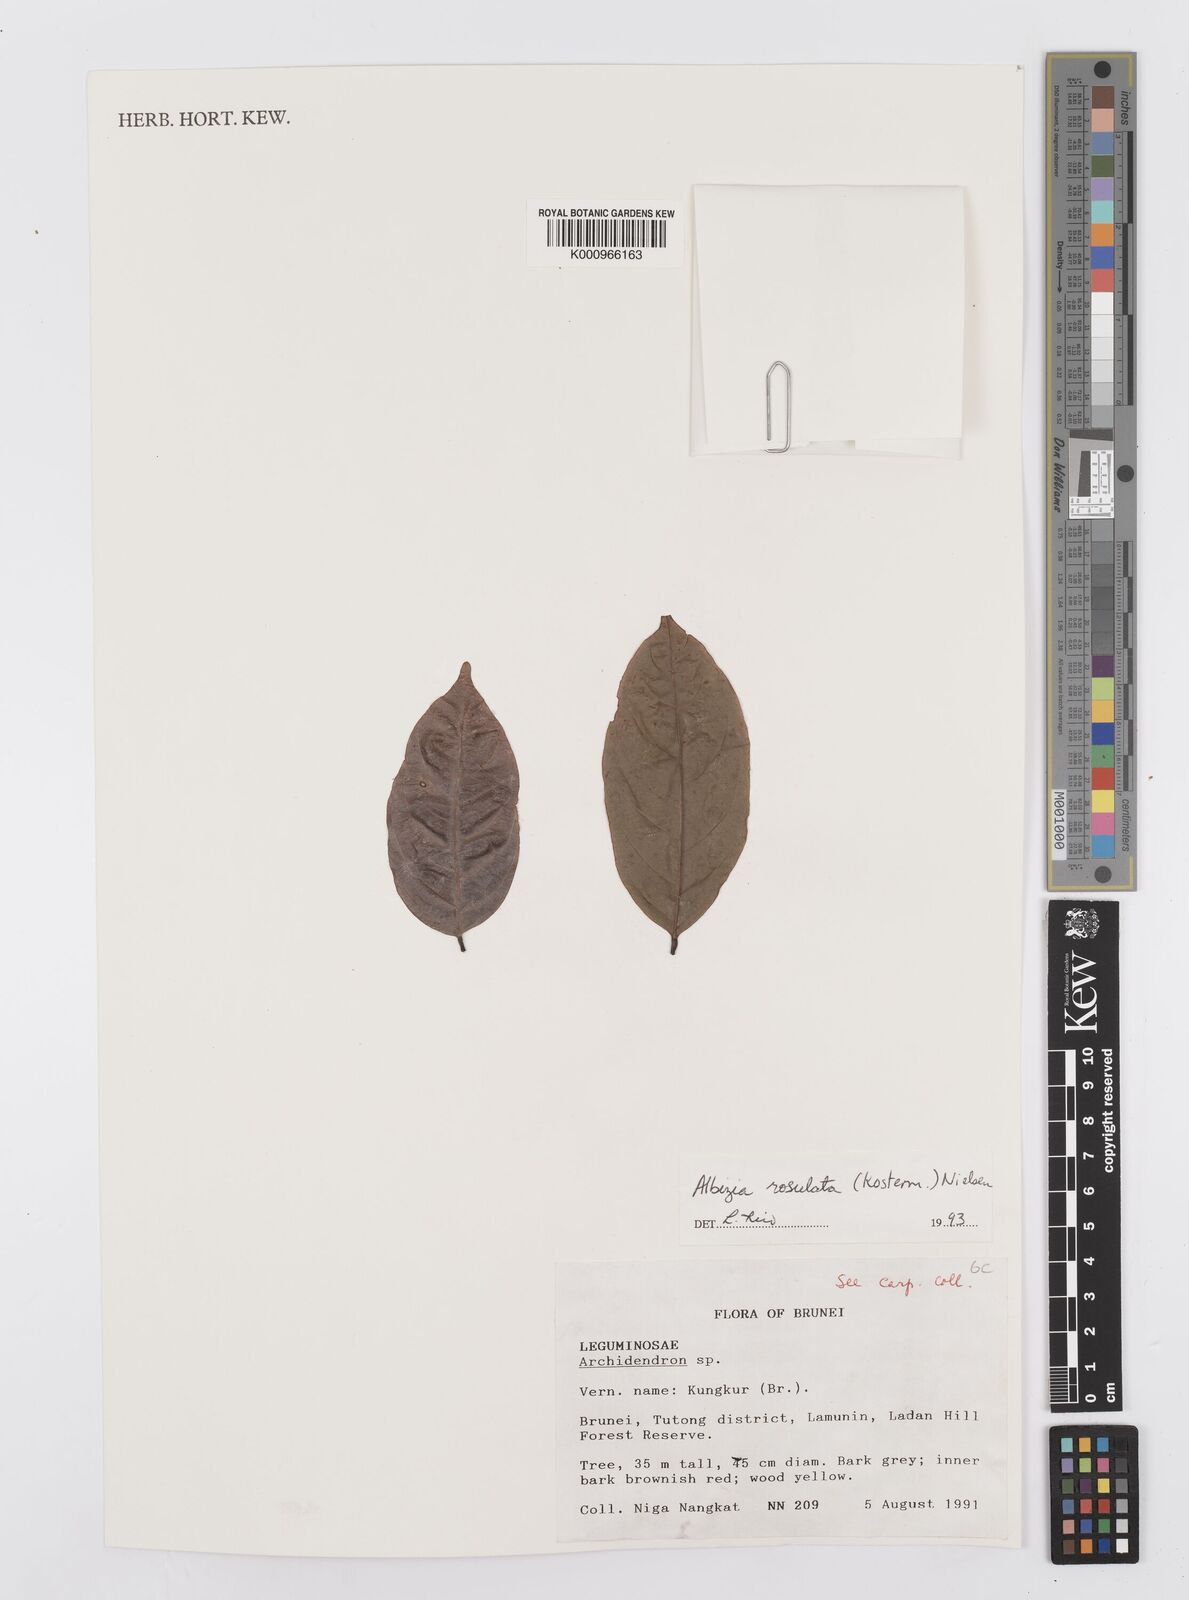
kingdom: Plantae
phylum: Tracheophyta
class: Magnoliopsida
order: Fabales
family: Fabaceae
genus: Albizia
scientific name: Albizia rosulata
